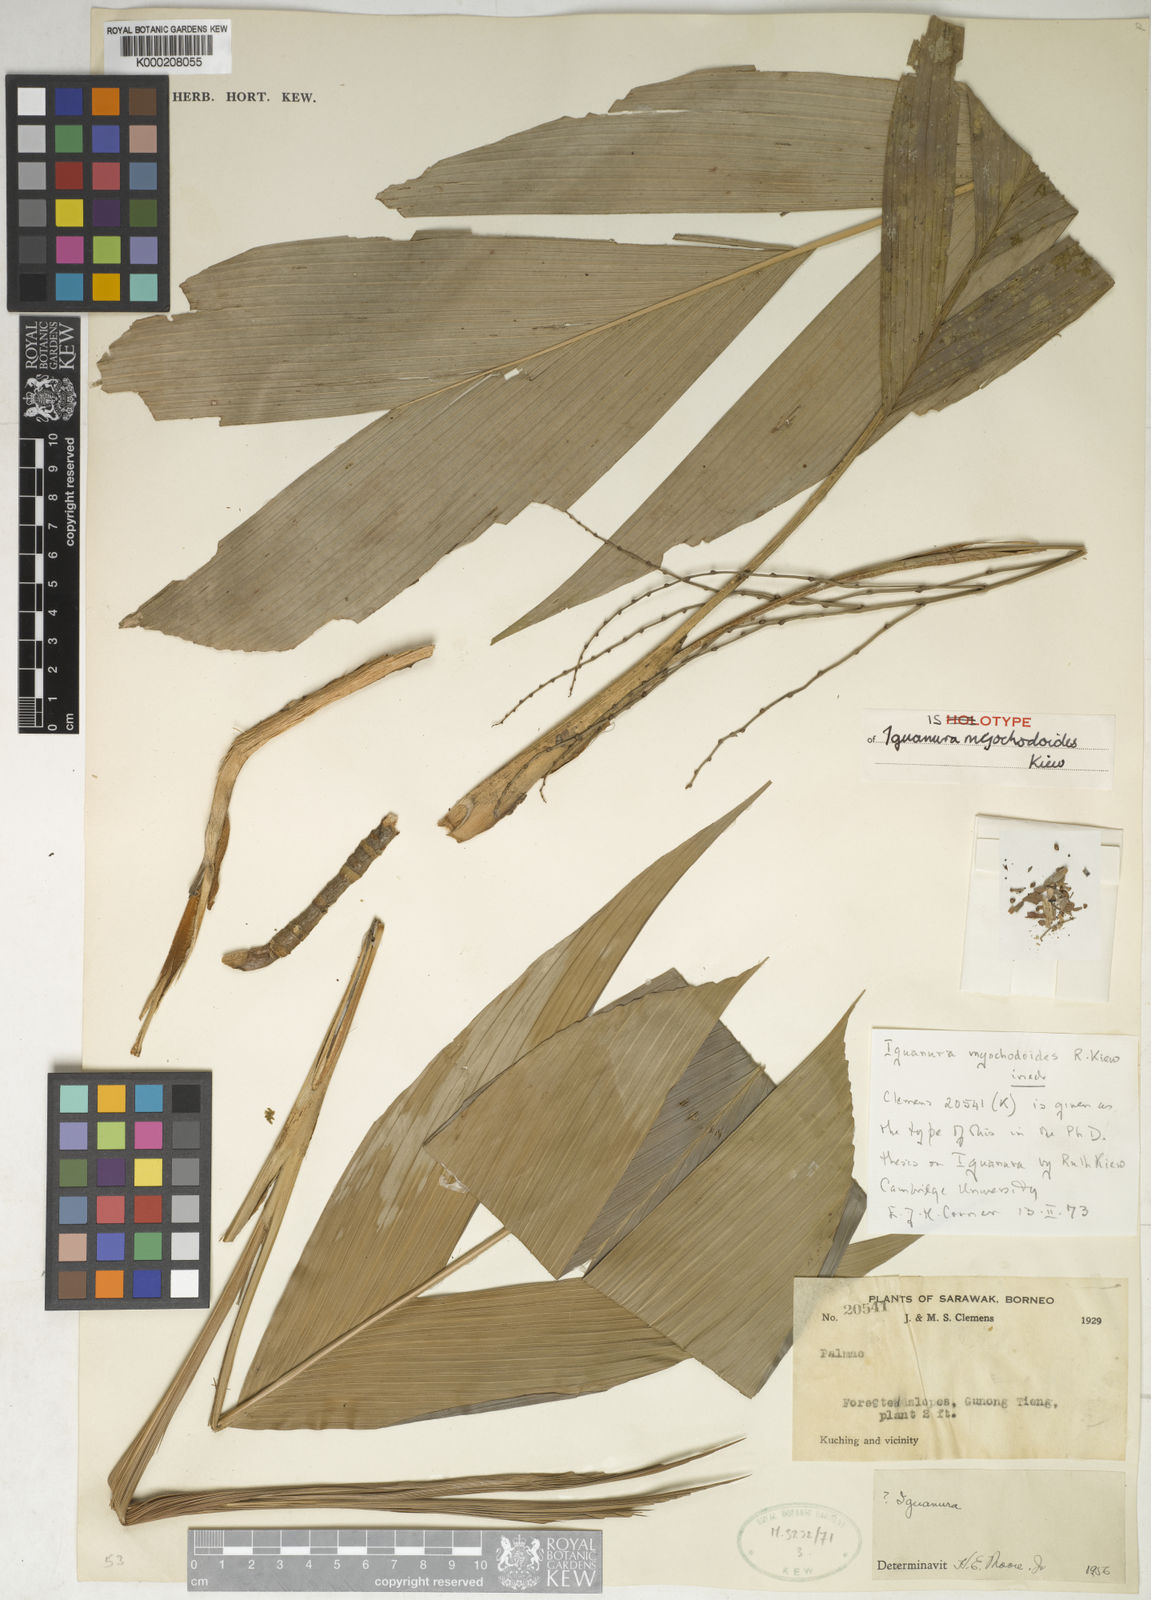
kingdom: Plantae
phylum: Tracheophyta
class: Liliopsida
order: Arecales
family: Arecaceae
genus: Iguanura
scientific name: Iguanura myochodoides
